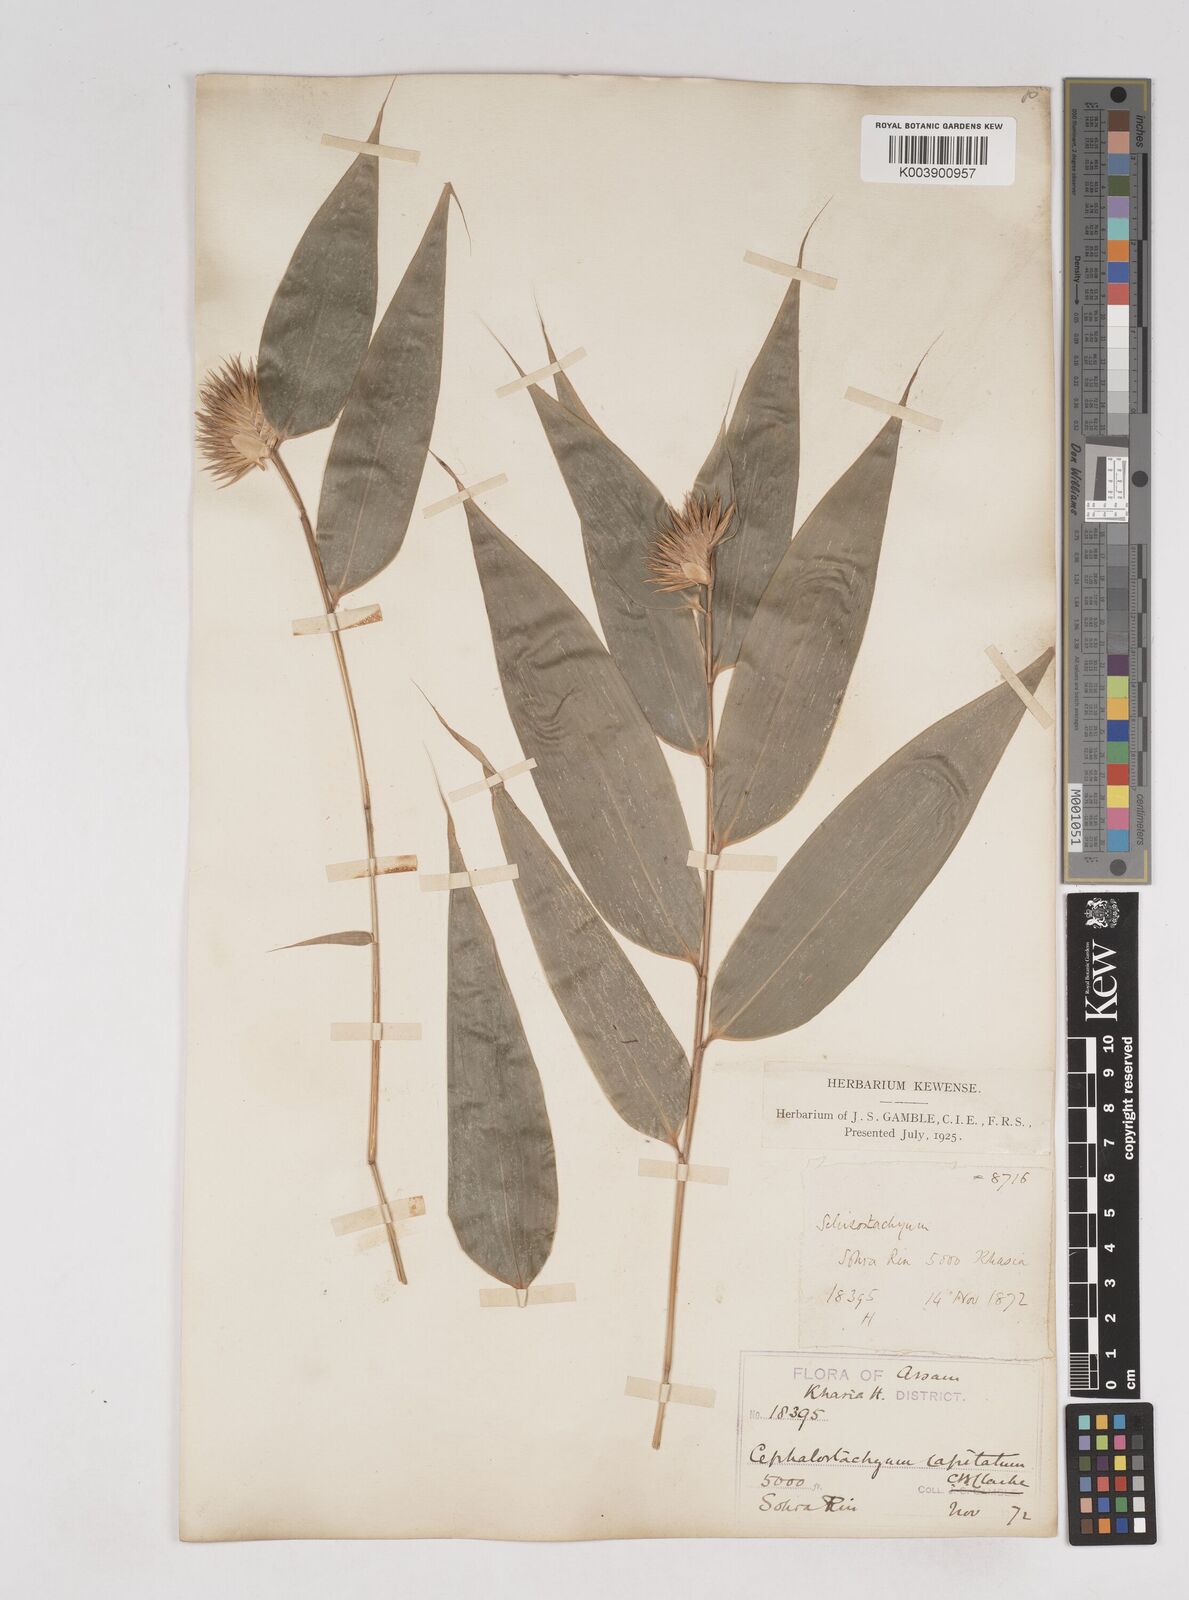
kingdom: Plantae
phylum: Tracheophyta
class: Liliopsida
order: Poales
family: Poaceae
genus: Cephalostachyum
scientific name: Cephalostachyum
